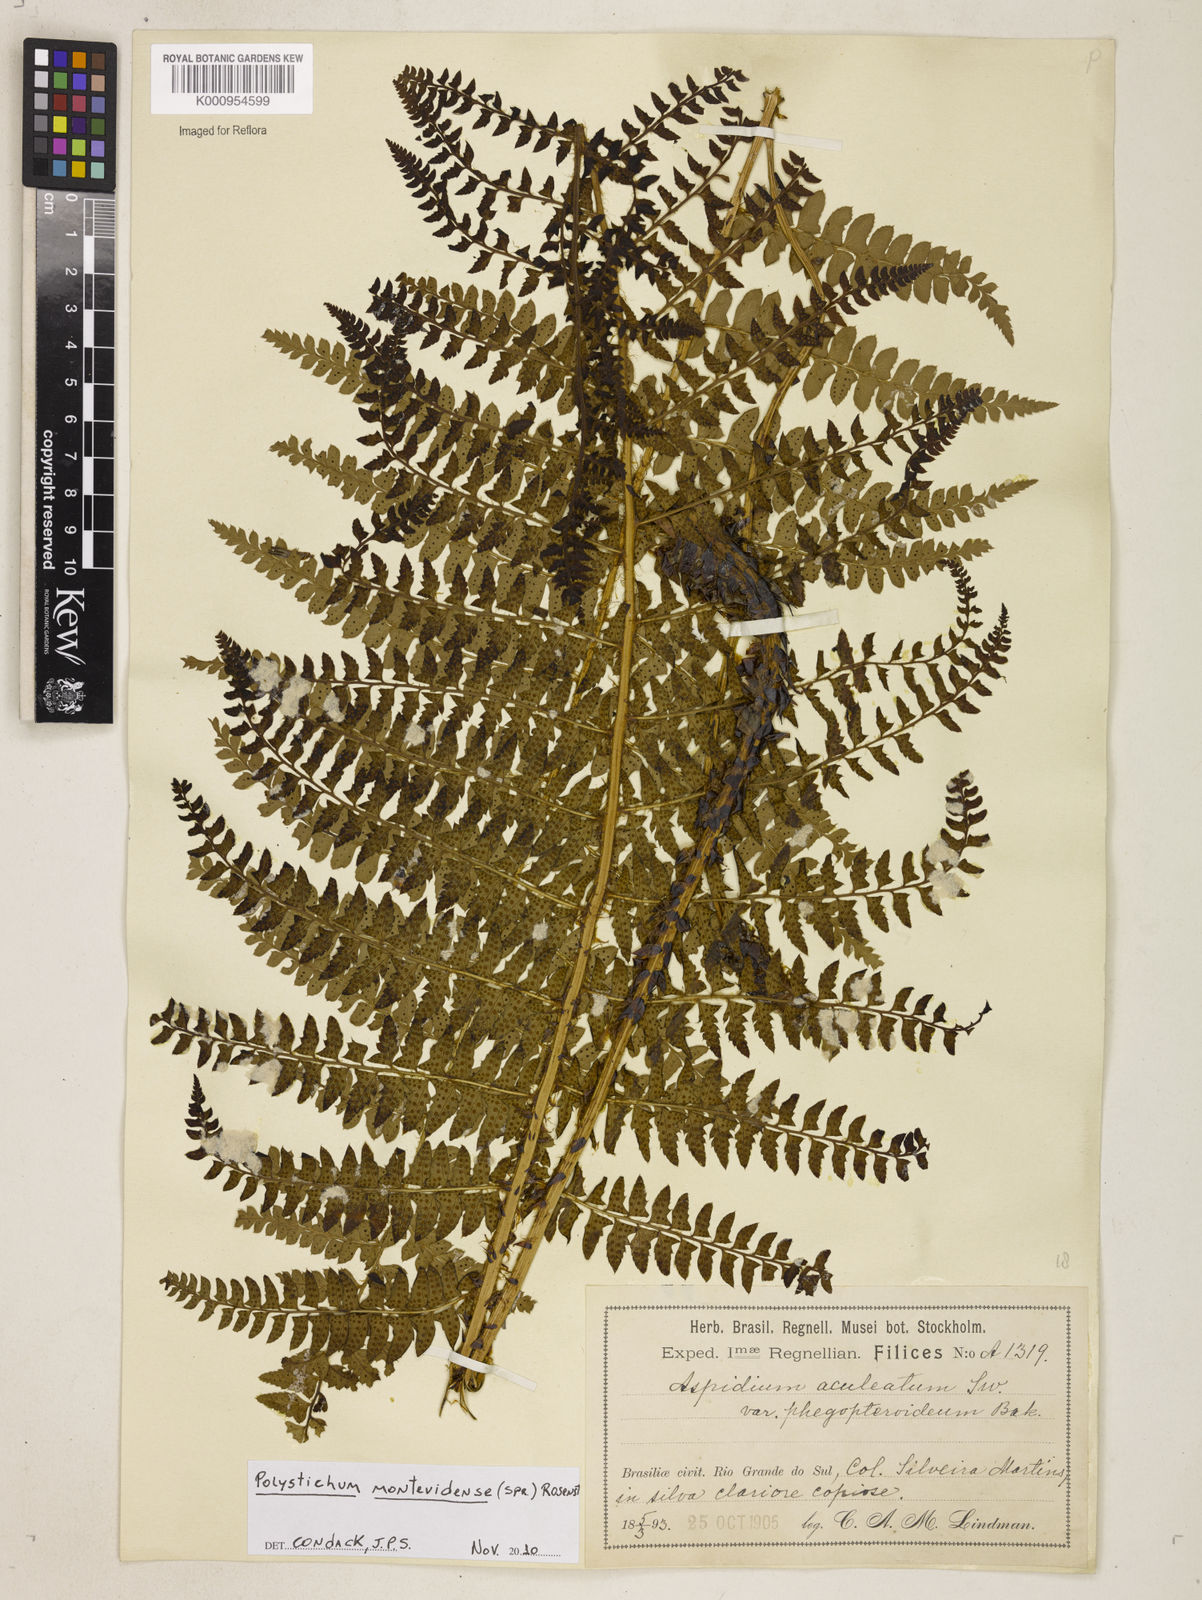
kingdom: Plantae
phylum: Tracheophyta
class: Polypodiopsida
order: Polypodiales
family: Dryopteridaceae
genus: Polystichum
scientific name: Polystichum montevidense
